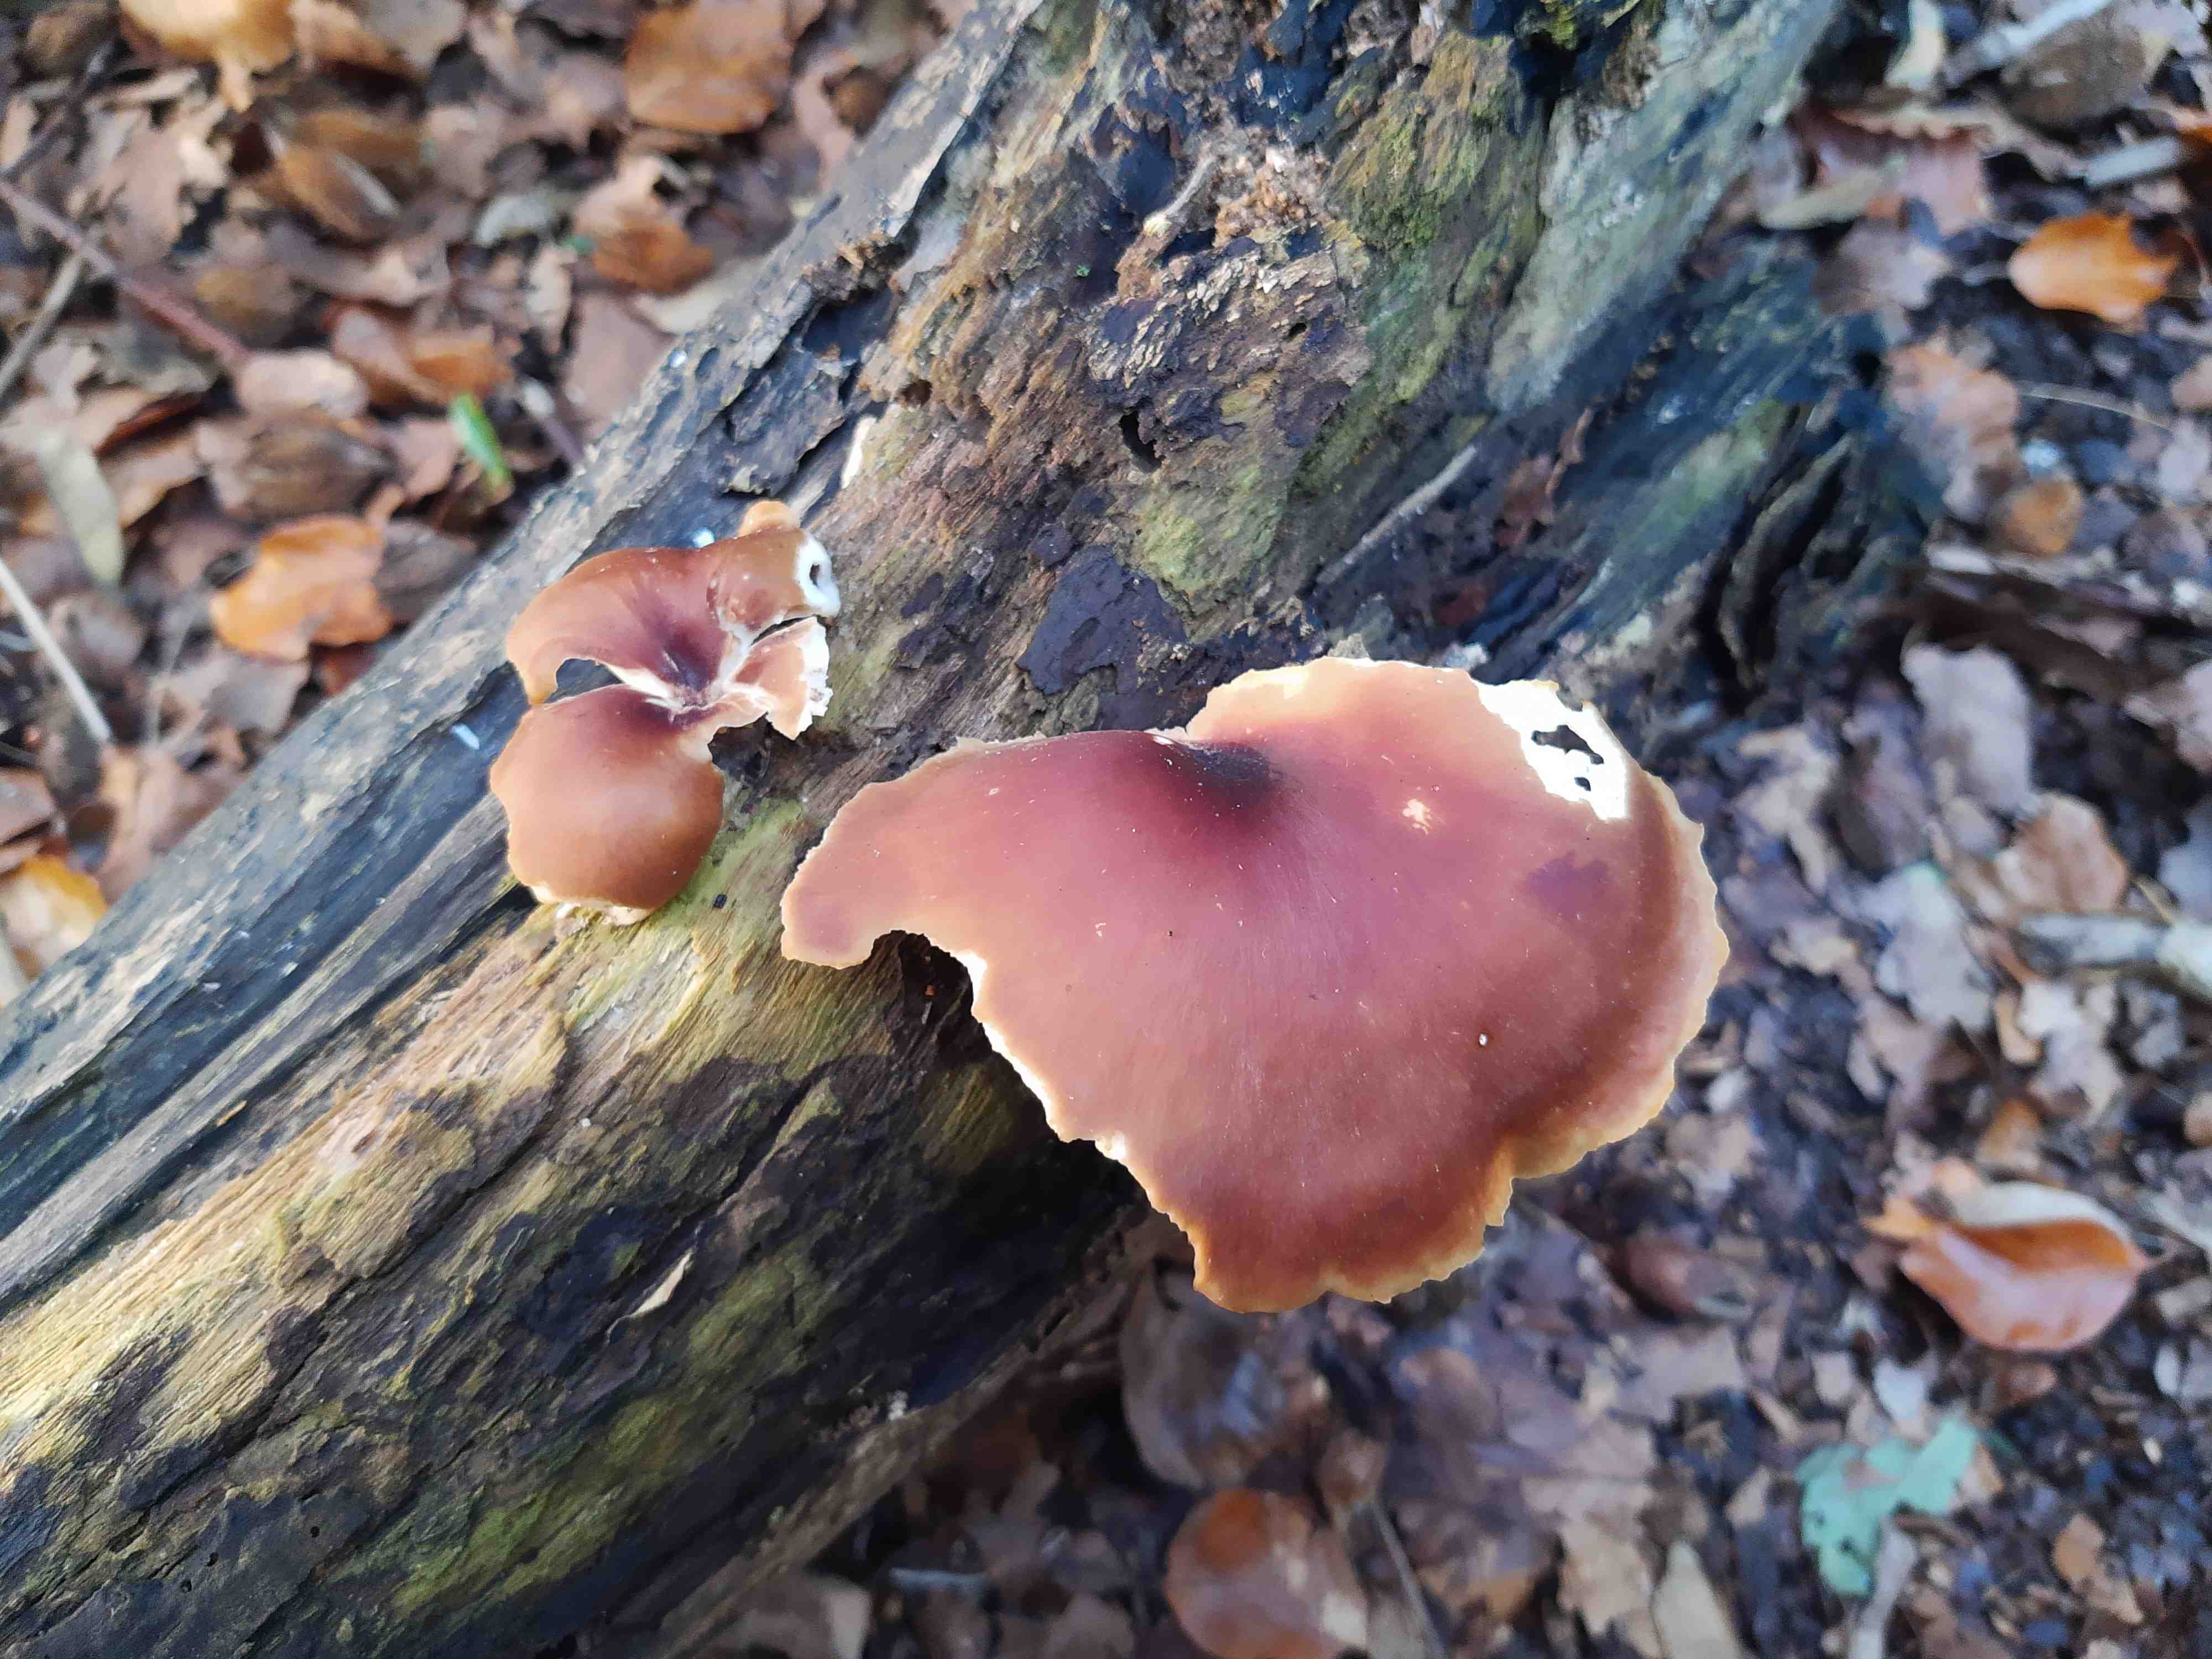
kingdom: Fungi
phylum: Basidiomycota
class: Agaricomycetes
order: Polyporales
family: Polyporaceae
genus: Picipes
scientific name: Picipes badius
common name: kastaniebrun stilkporesvamp
